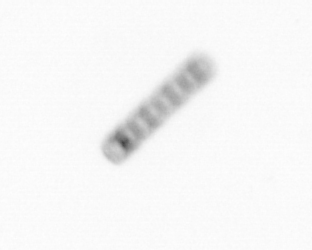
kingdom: Chromista
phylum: Ochrophyta
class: Bacillariophyceae
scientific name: Bacillariophyceae
